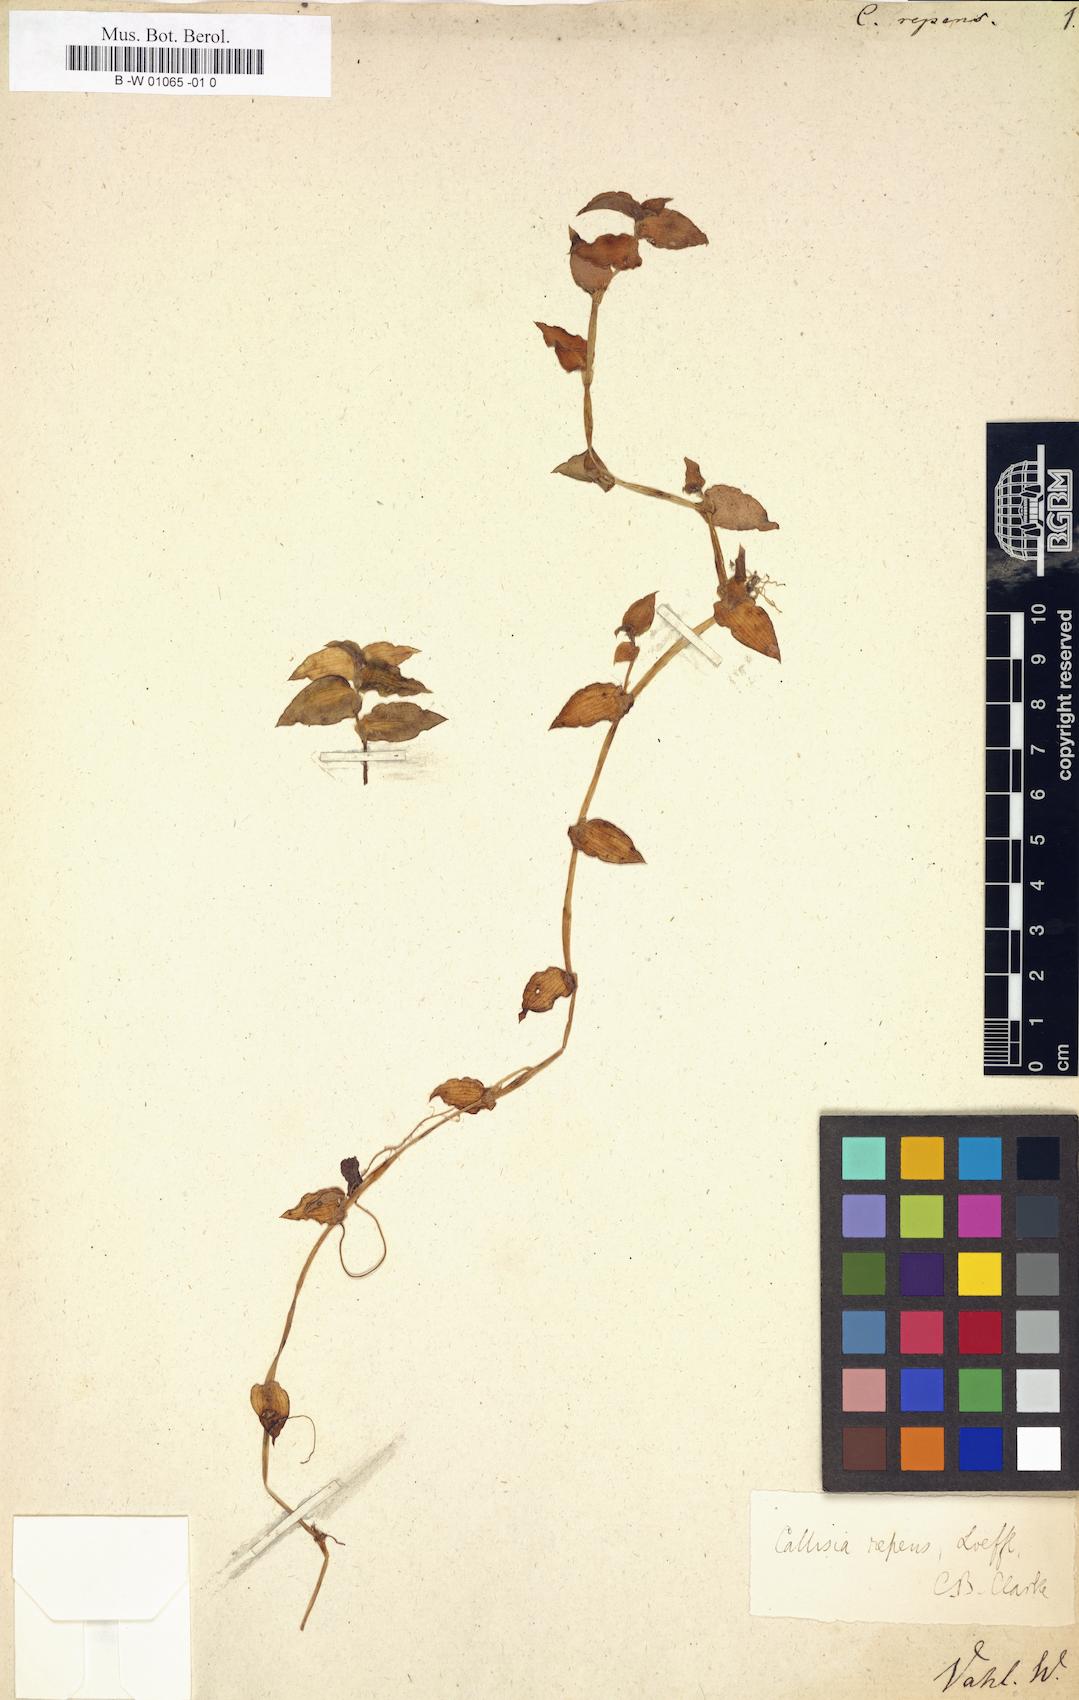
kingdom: Plantae
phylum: Tracheophyta
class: Liliopsida
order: Commelinales
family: Commelinaceae
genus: Callisia
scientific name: Callisia repens
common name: Creeping inchplant
